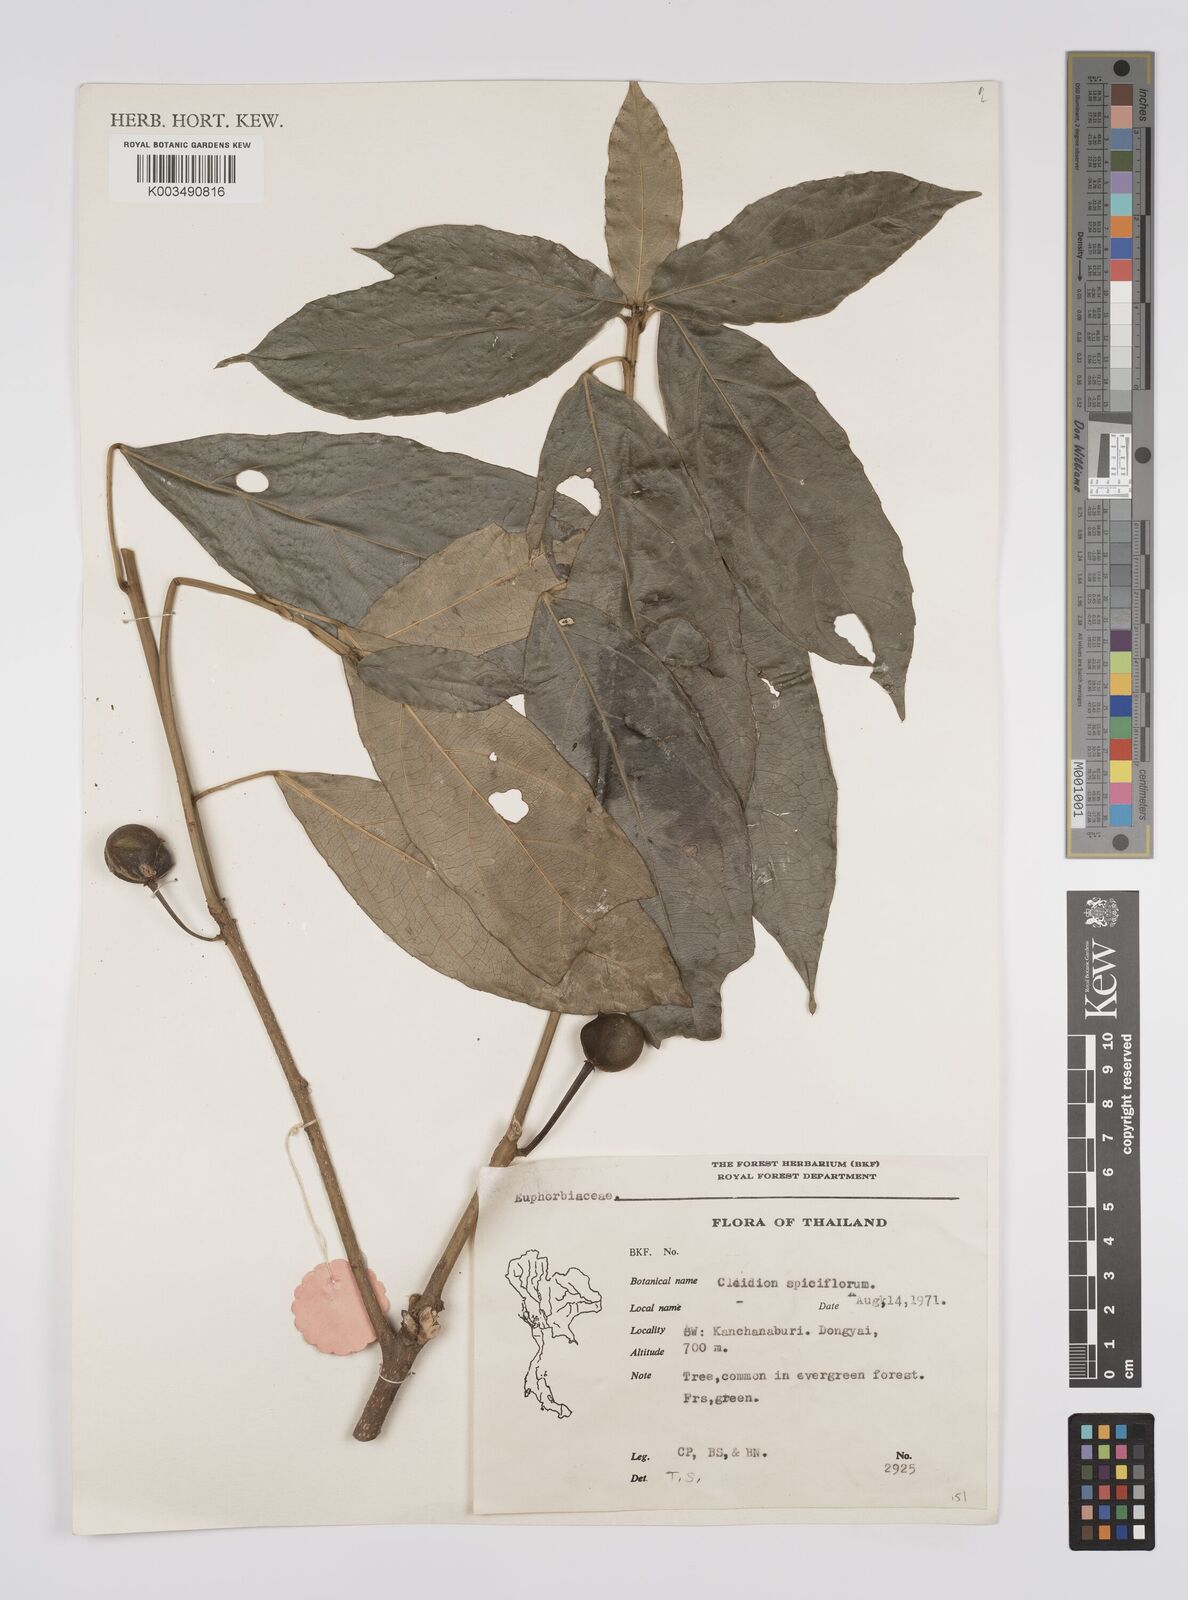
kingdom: Plantae
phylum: Tracheophyta
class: Magnoliopsida
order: Malpighiales
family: Euphorbiaceae
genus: Acalypha
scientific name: Acalypha spiciflora
